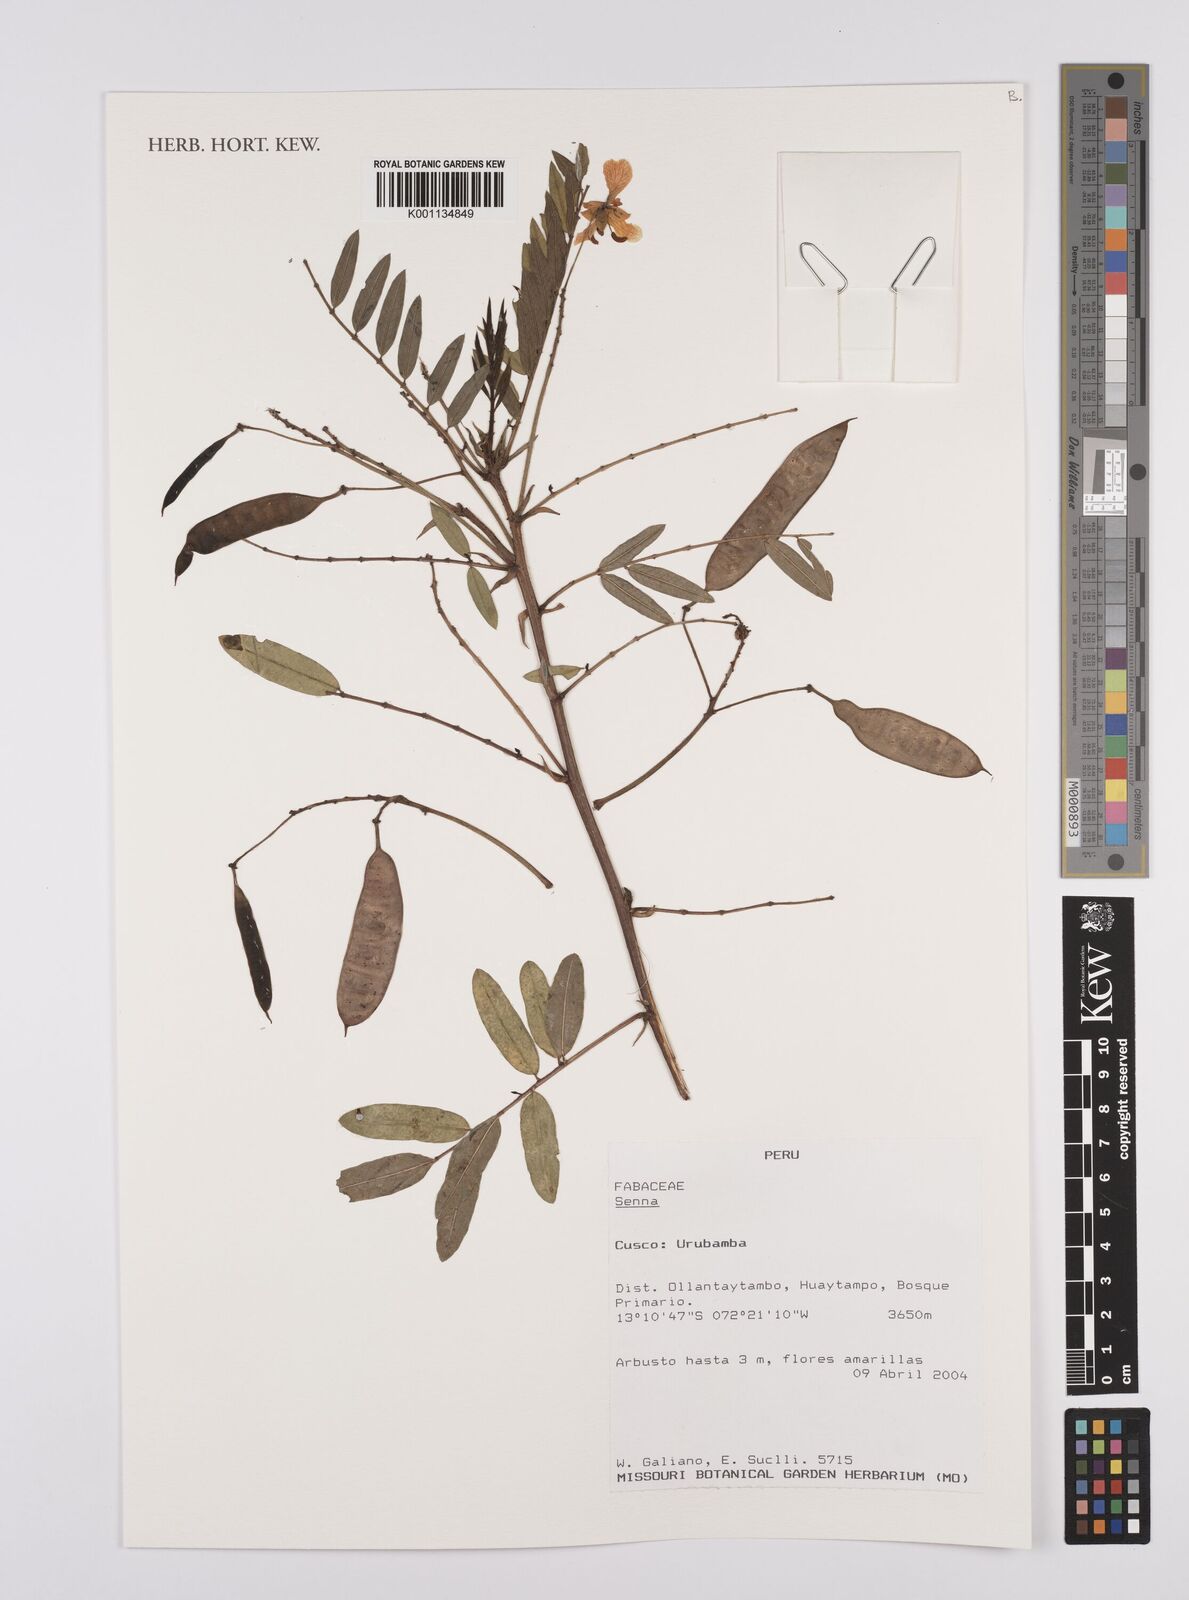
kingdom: Plantae
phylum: Tracheophyta
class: Magnoliopsida
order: Fabales
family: Fabaceae
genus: Senna
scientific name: Senna
